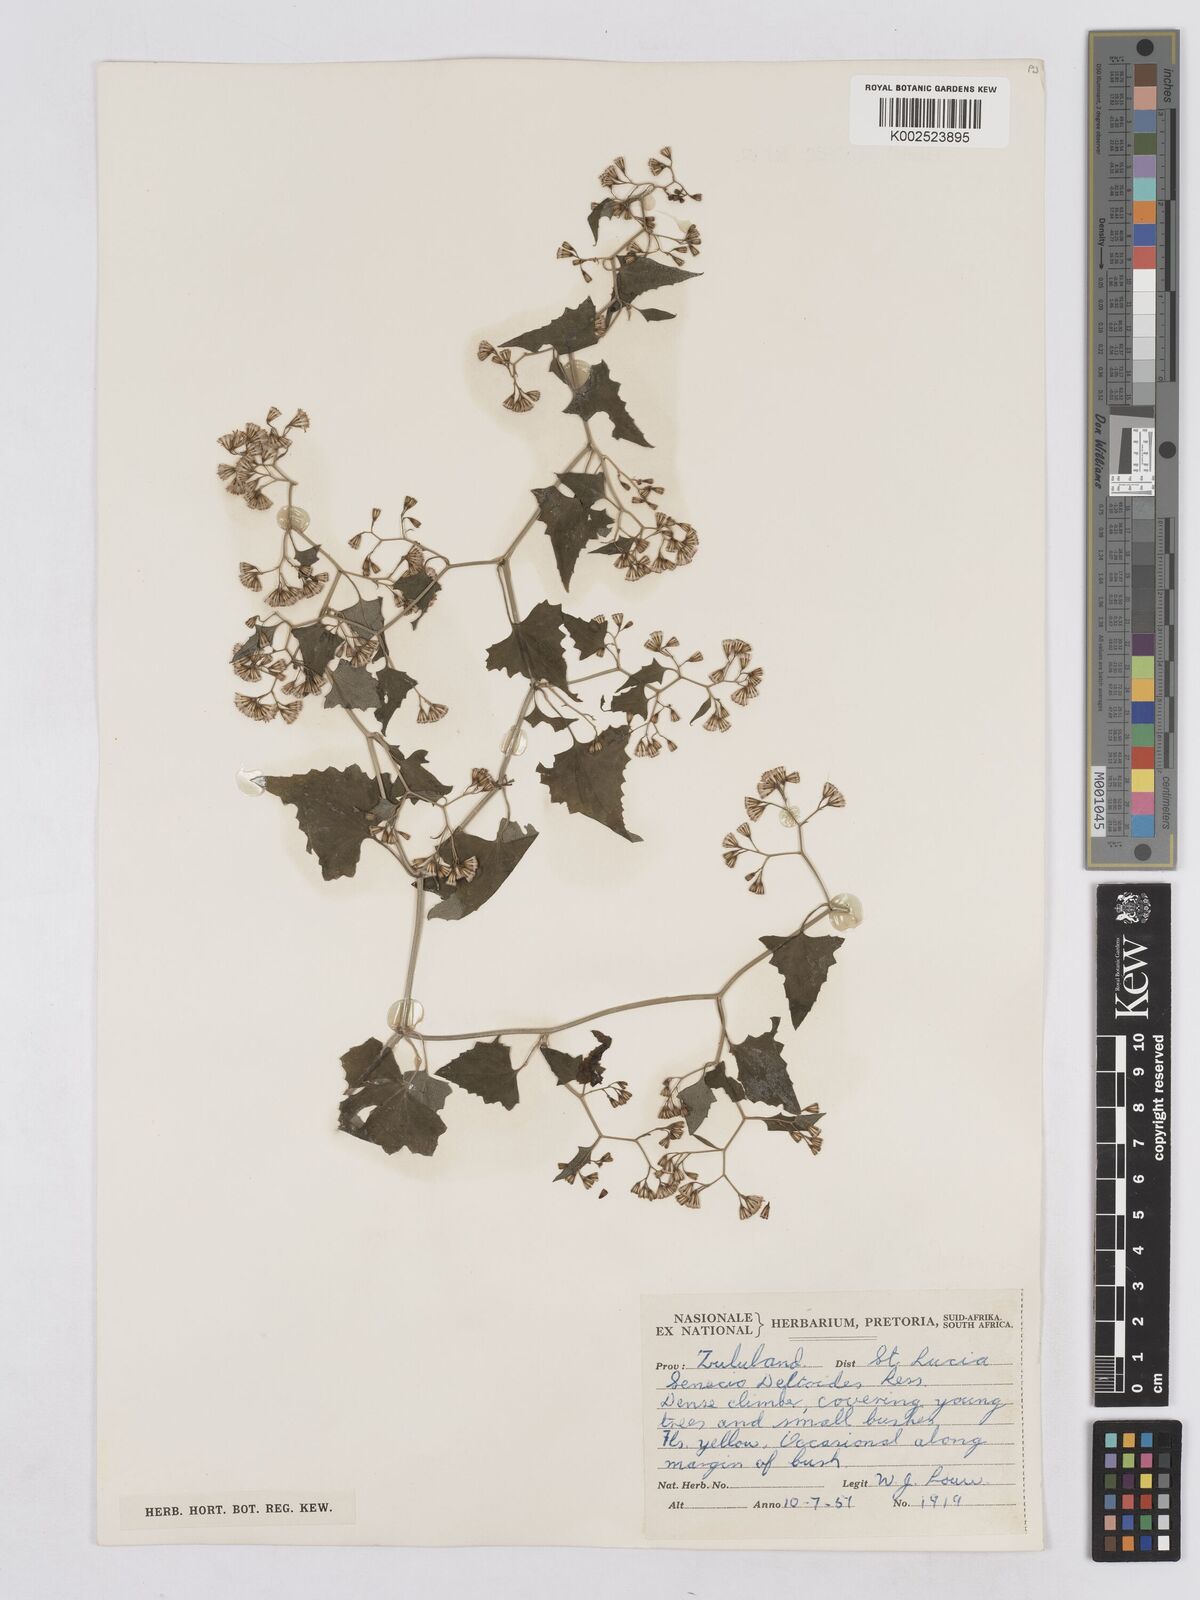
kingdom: Plantae
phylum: Tracheophyta
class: Magnoliopsida
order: Asterales
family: Asteraceae
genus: Senecio
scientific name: Senecio deltoideus
